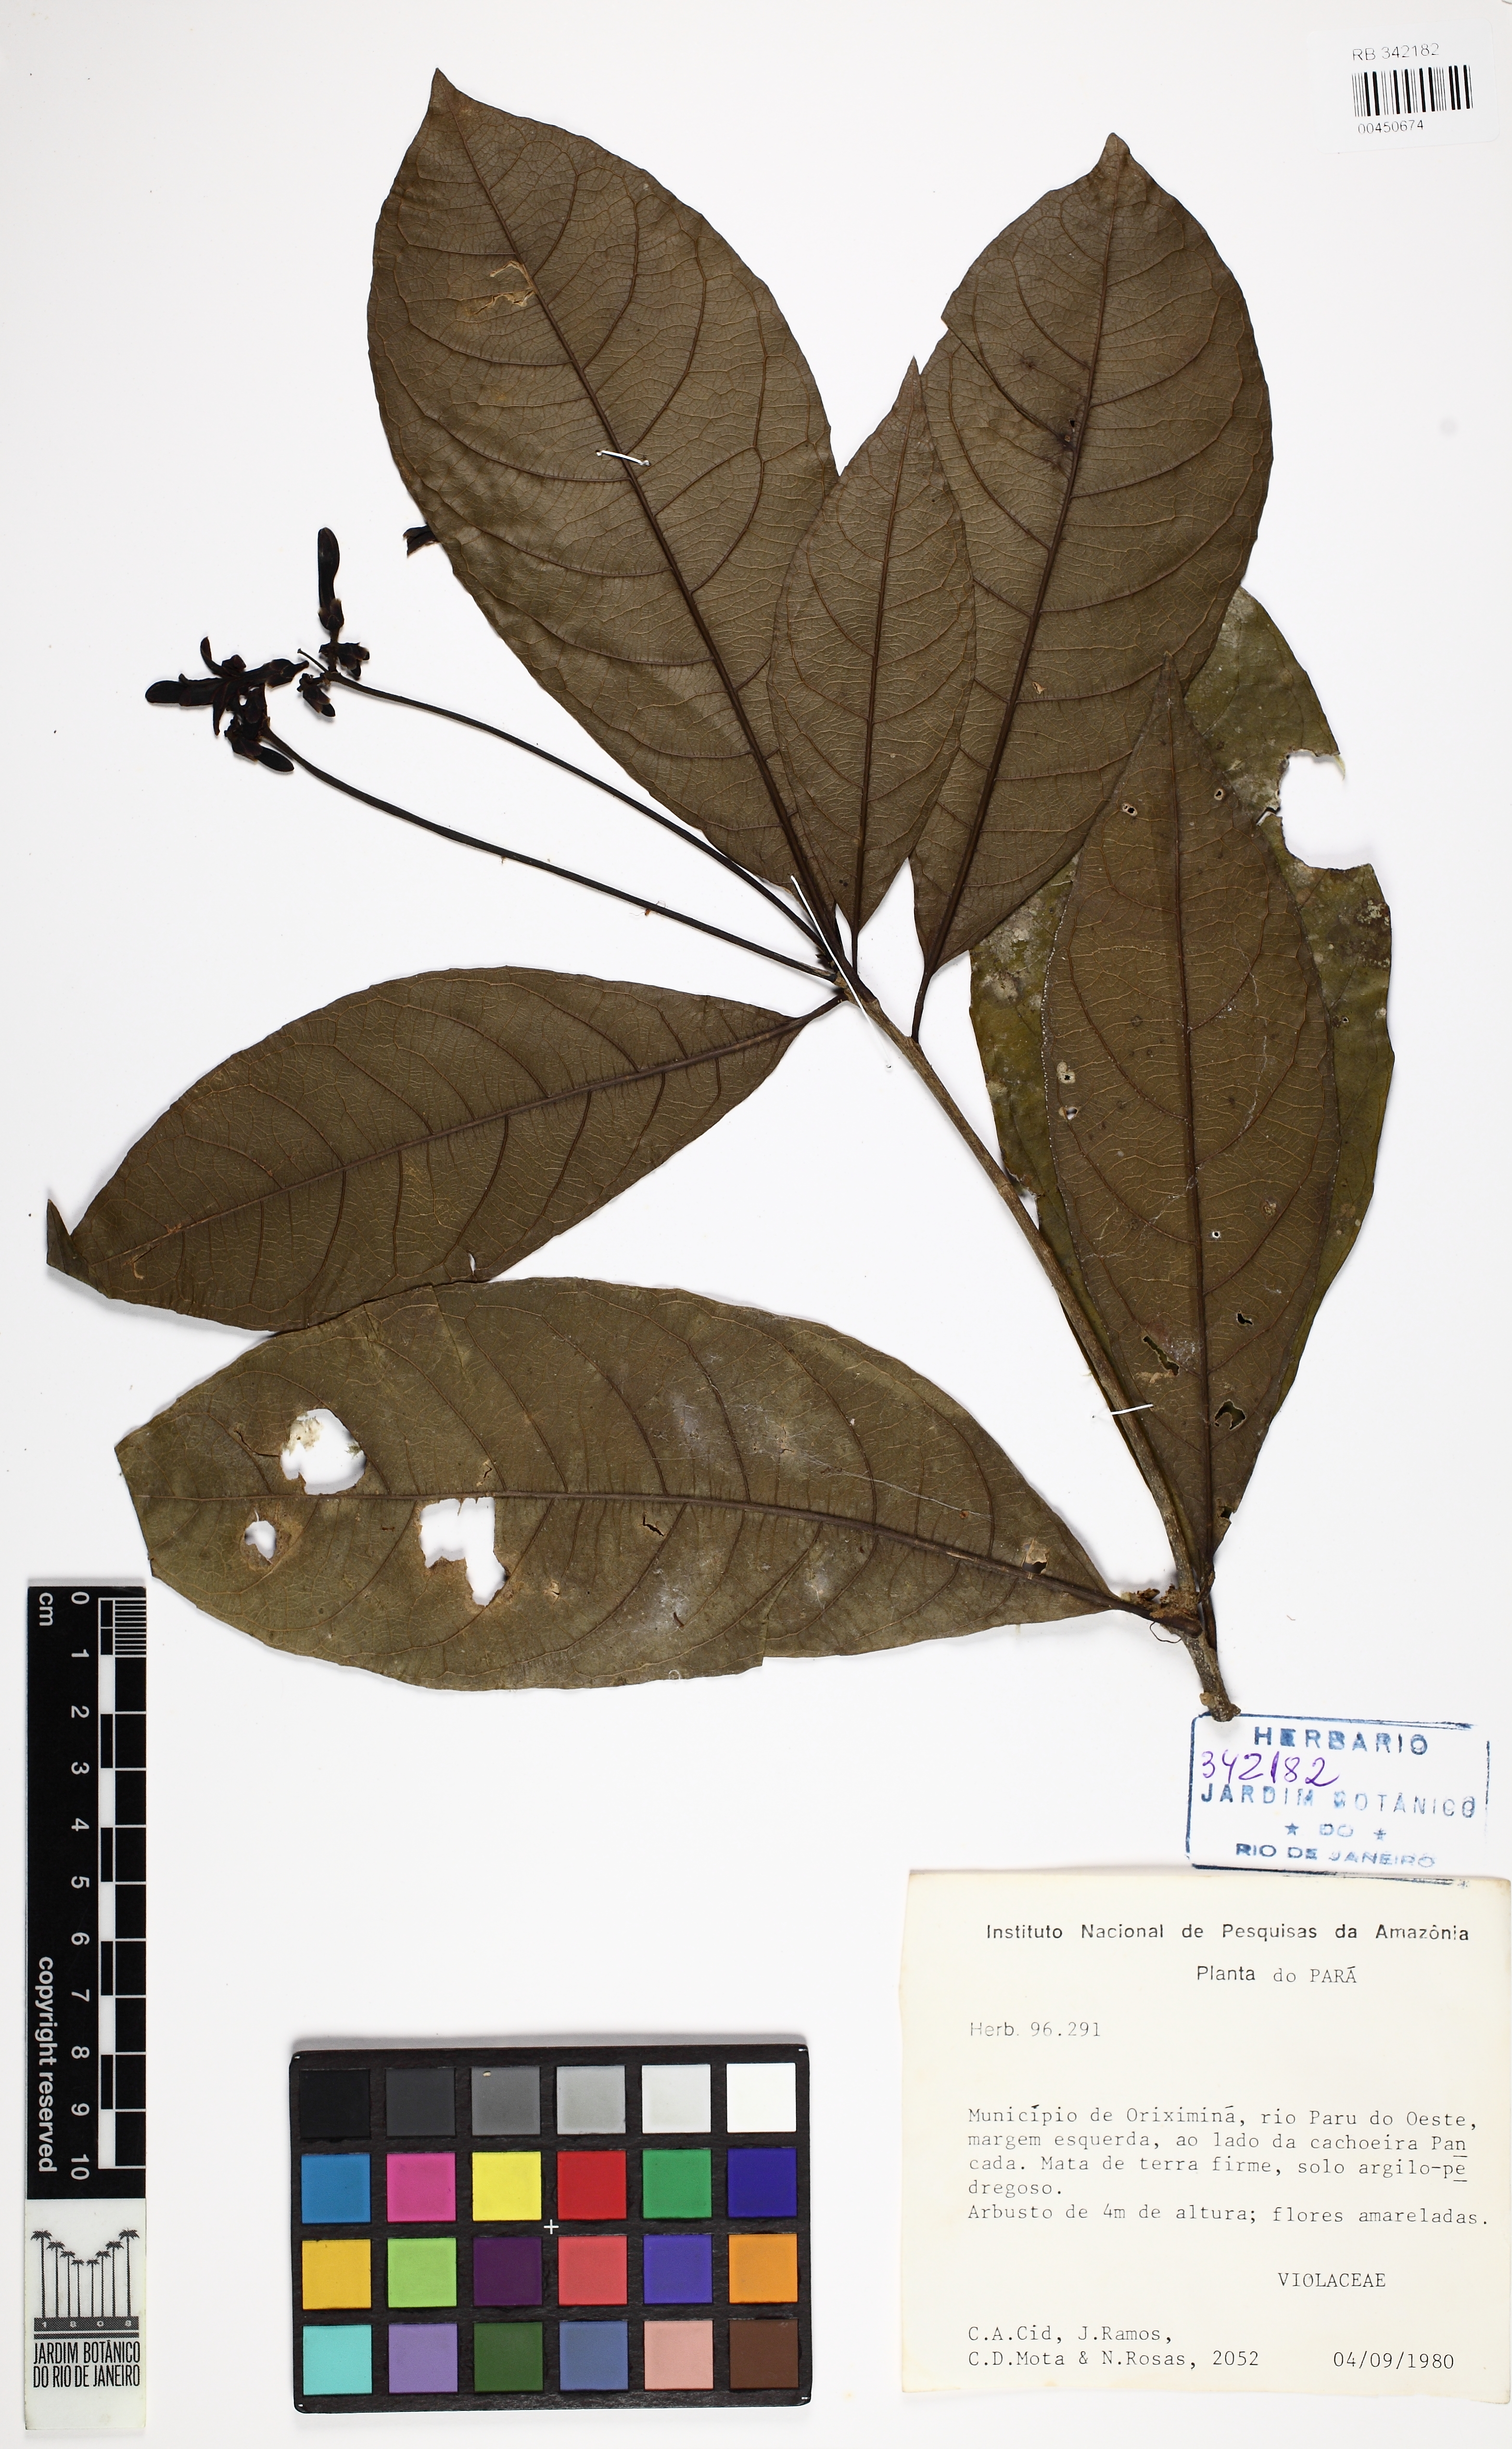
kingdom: Plantae
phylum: Tracheophyta
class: Magnoliopsida
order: Malpighiales
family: Violaceae
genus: Amphirrhox
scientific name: Amphirrhox
